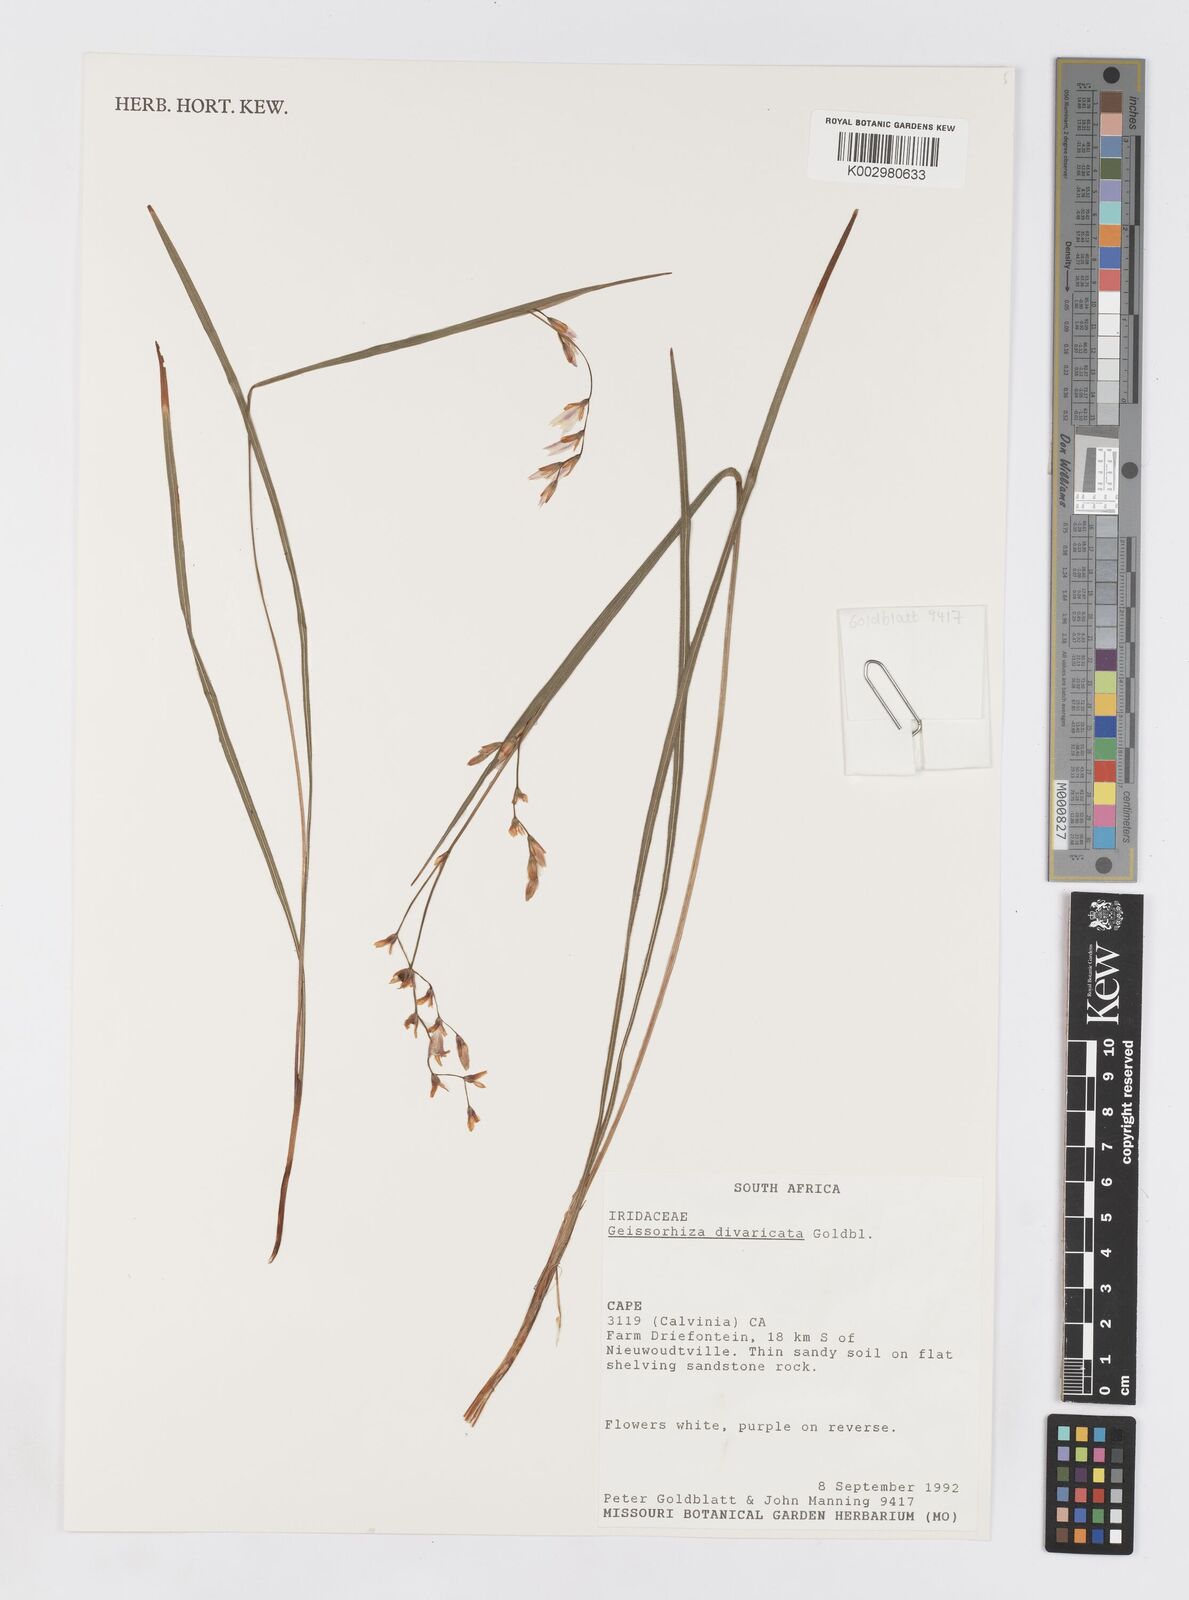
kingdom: Plantae
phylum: Tracheophyta
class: Liliopsida
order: Asparagales
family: Iridaceae
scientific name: Iridaceae
